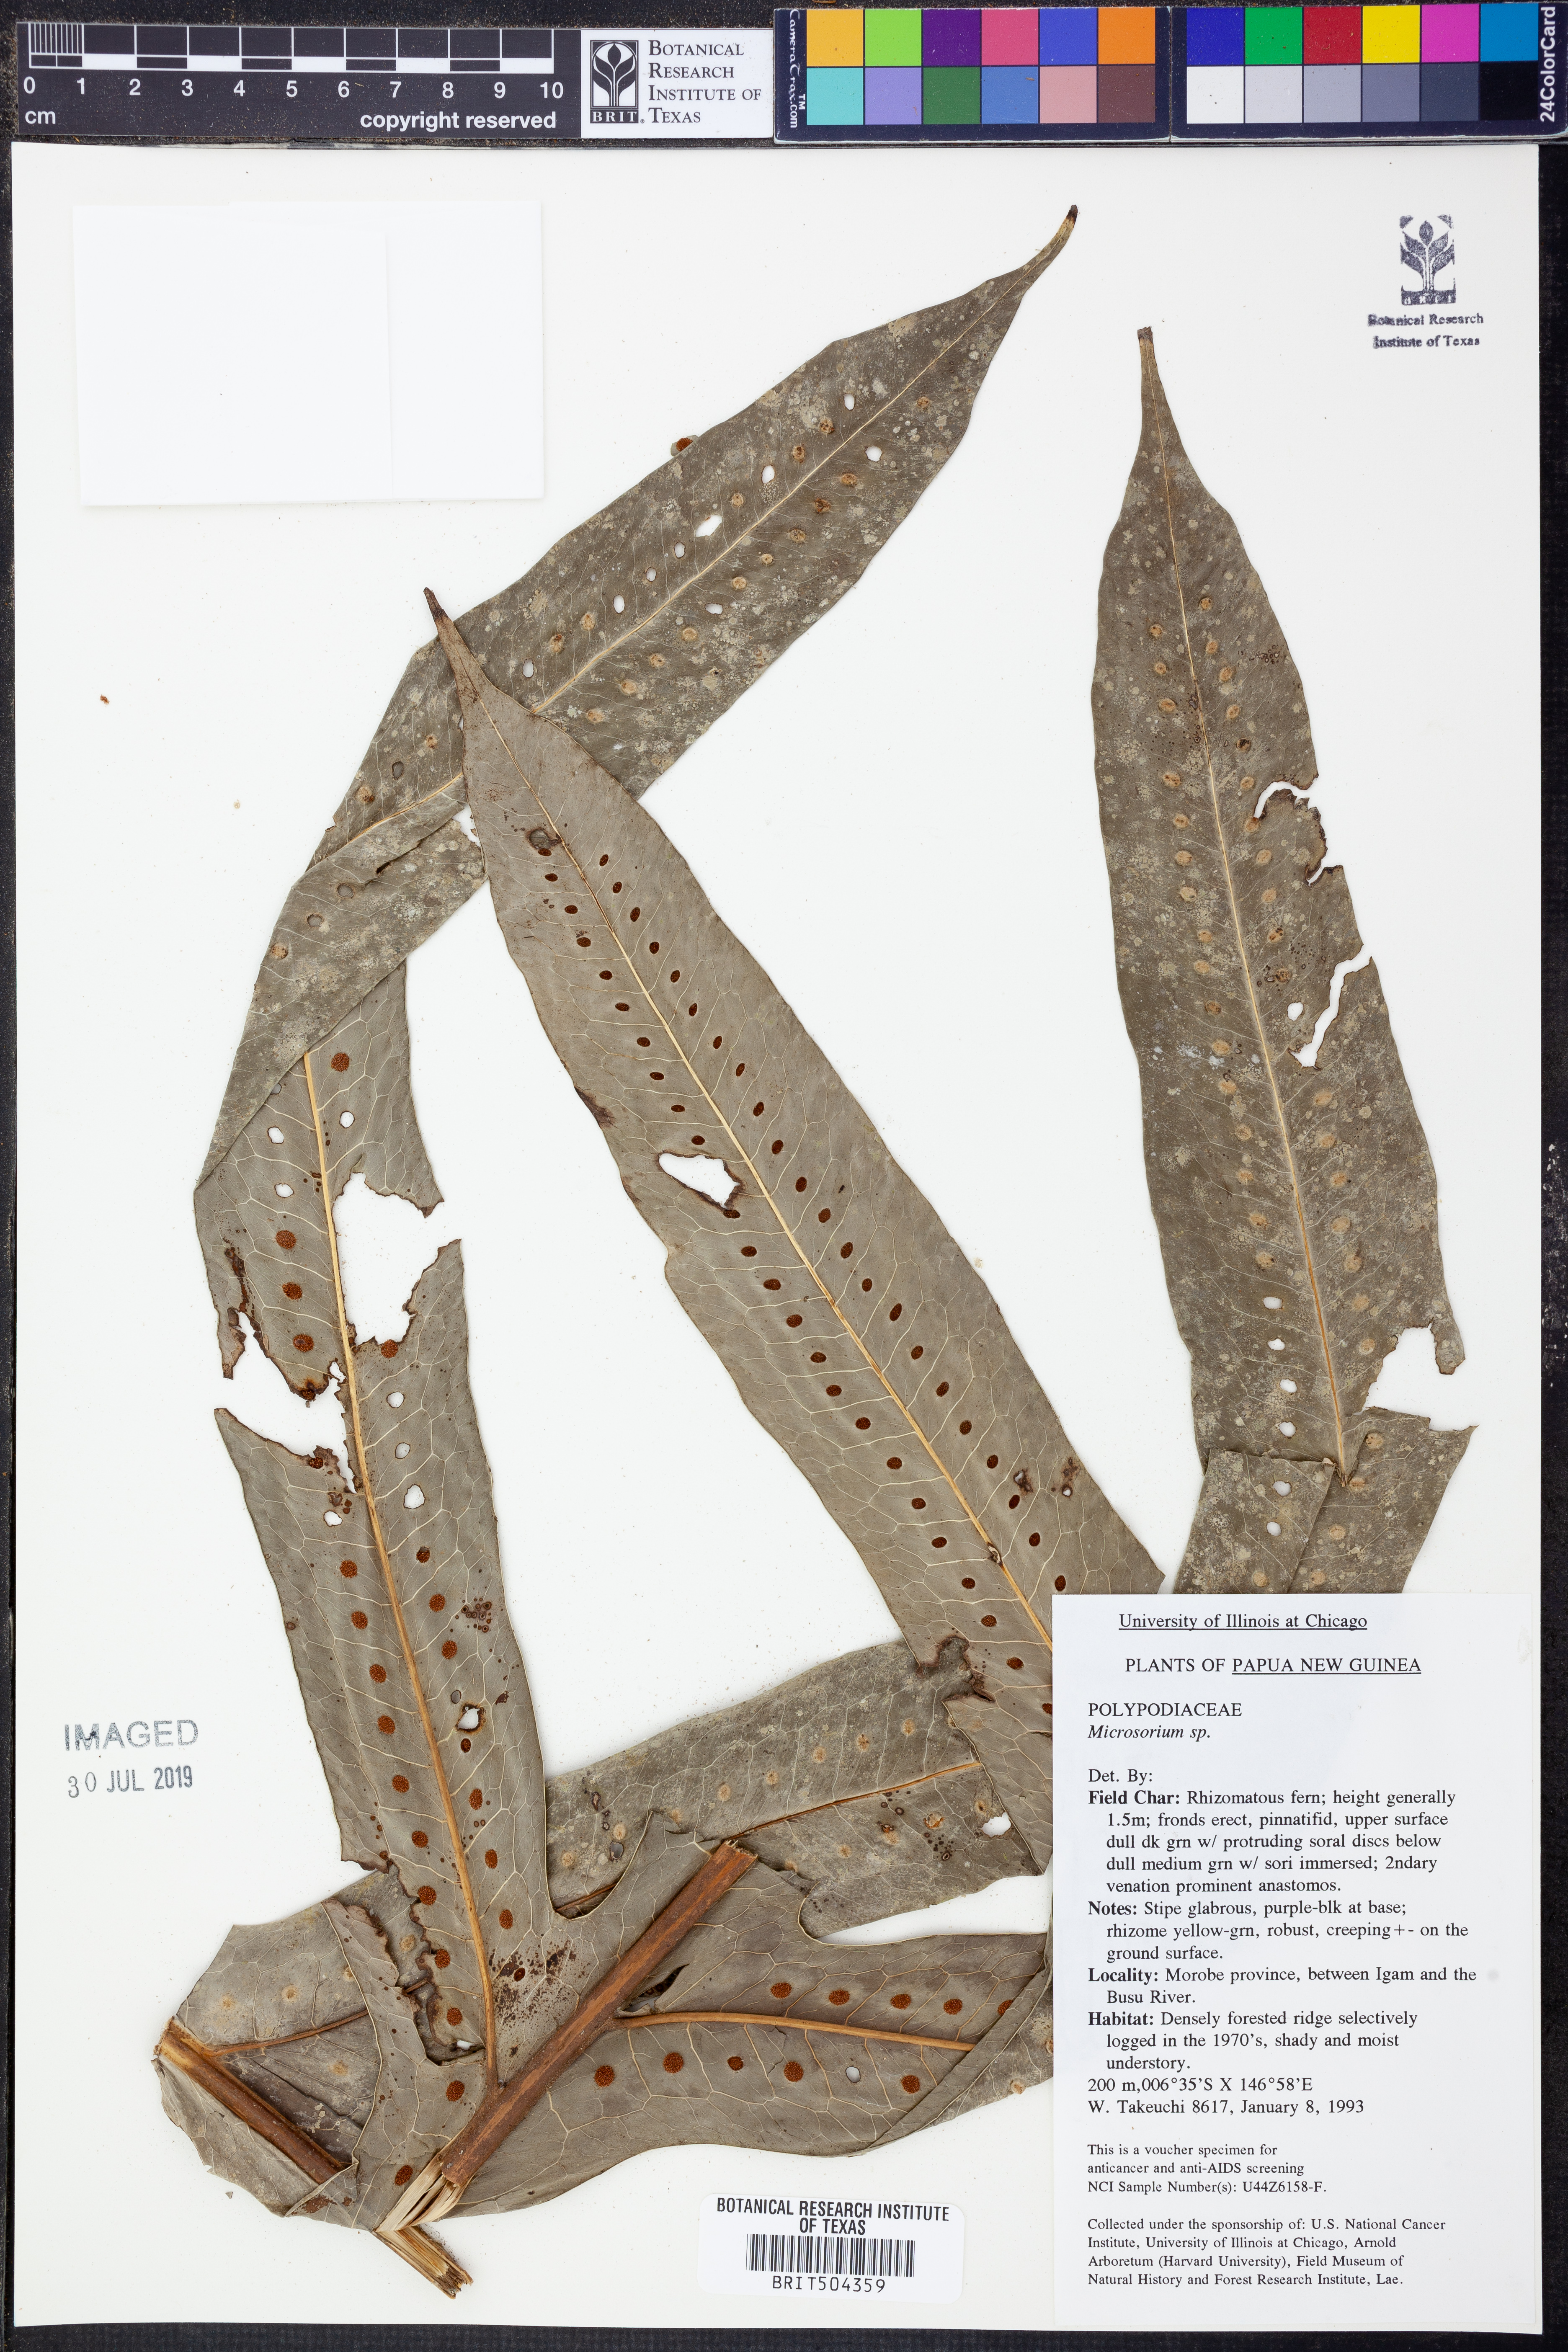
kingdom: Plantae
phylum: Tracheophyta
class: Polypodiopsida
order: Polypodiales
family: Polypodiaceae
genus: Microsorum
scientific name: Microsorum
